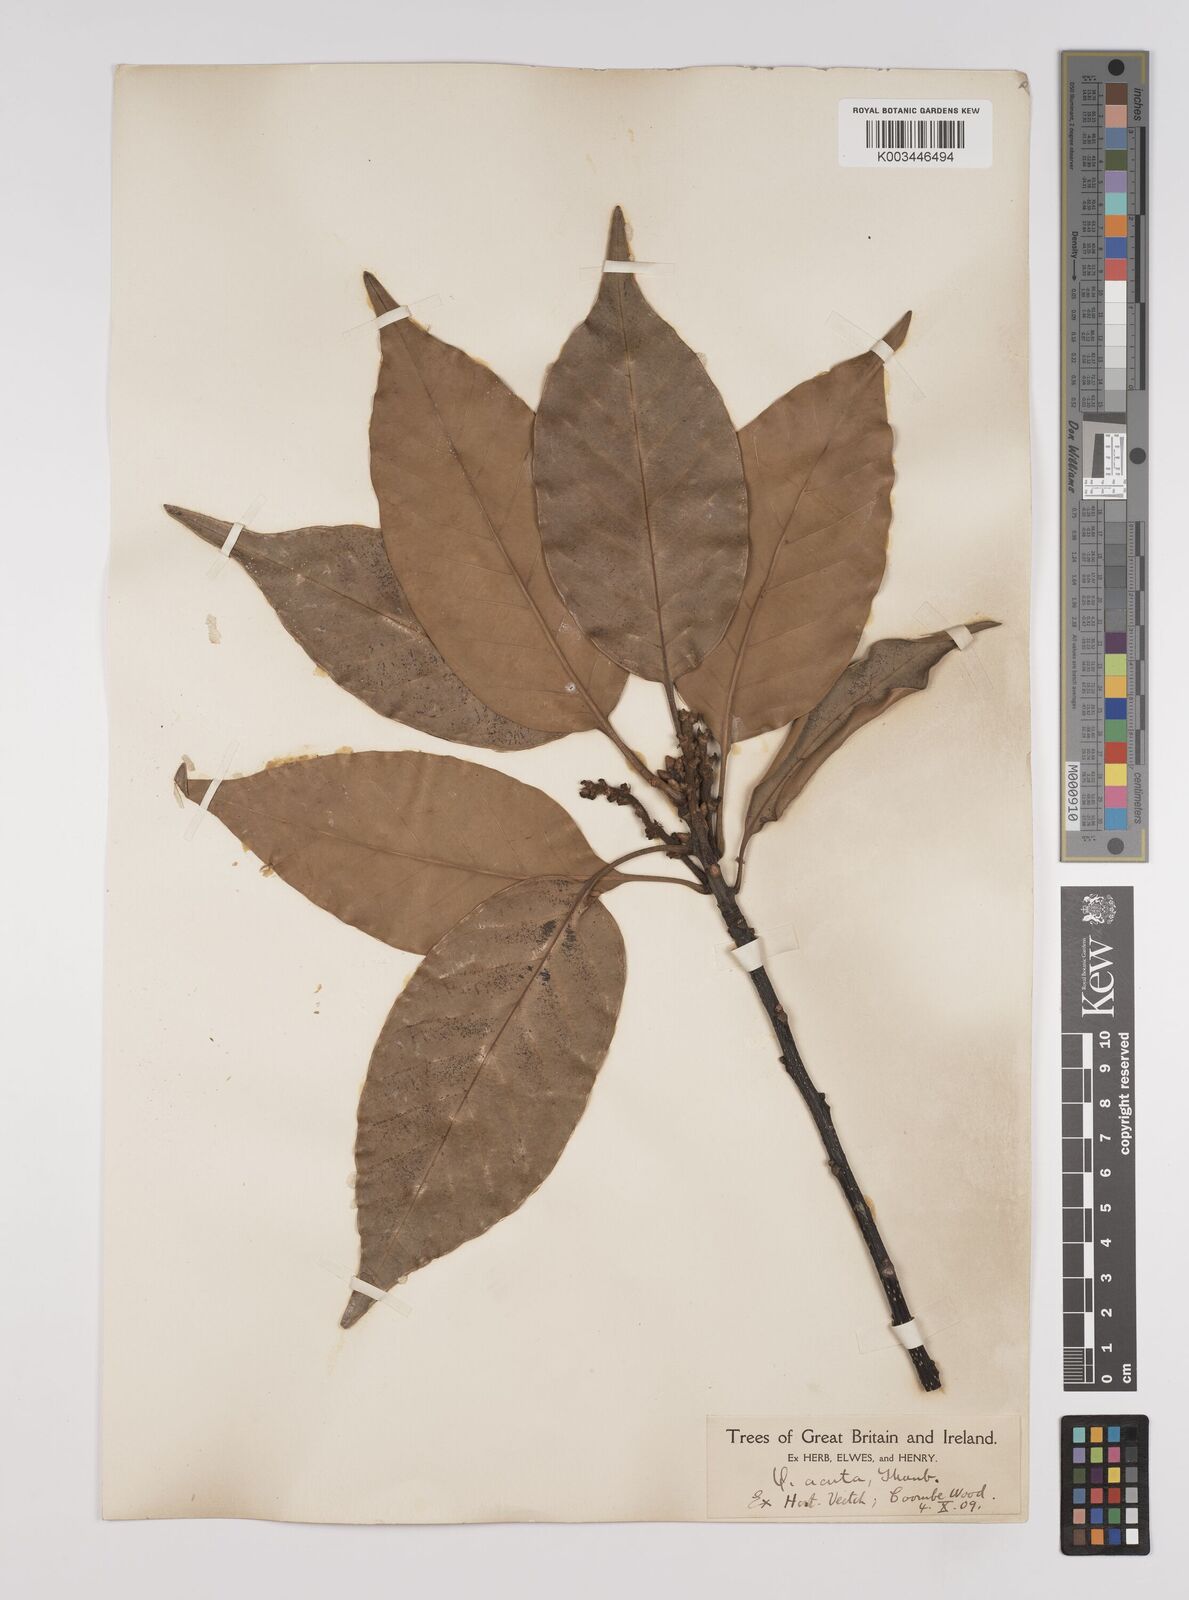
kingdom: Plantae
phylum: Tracheophyta
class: Magnoliopsida
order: Fagales
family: Fagaceae
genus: Quercus
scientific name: Quercus coccinea
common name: Scarlet oak
